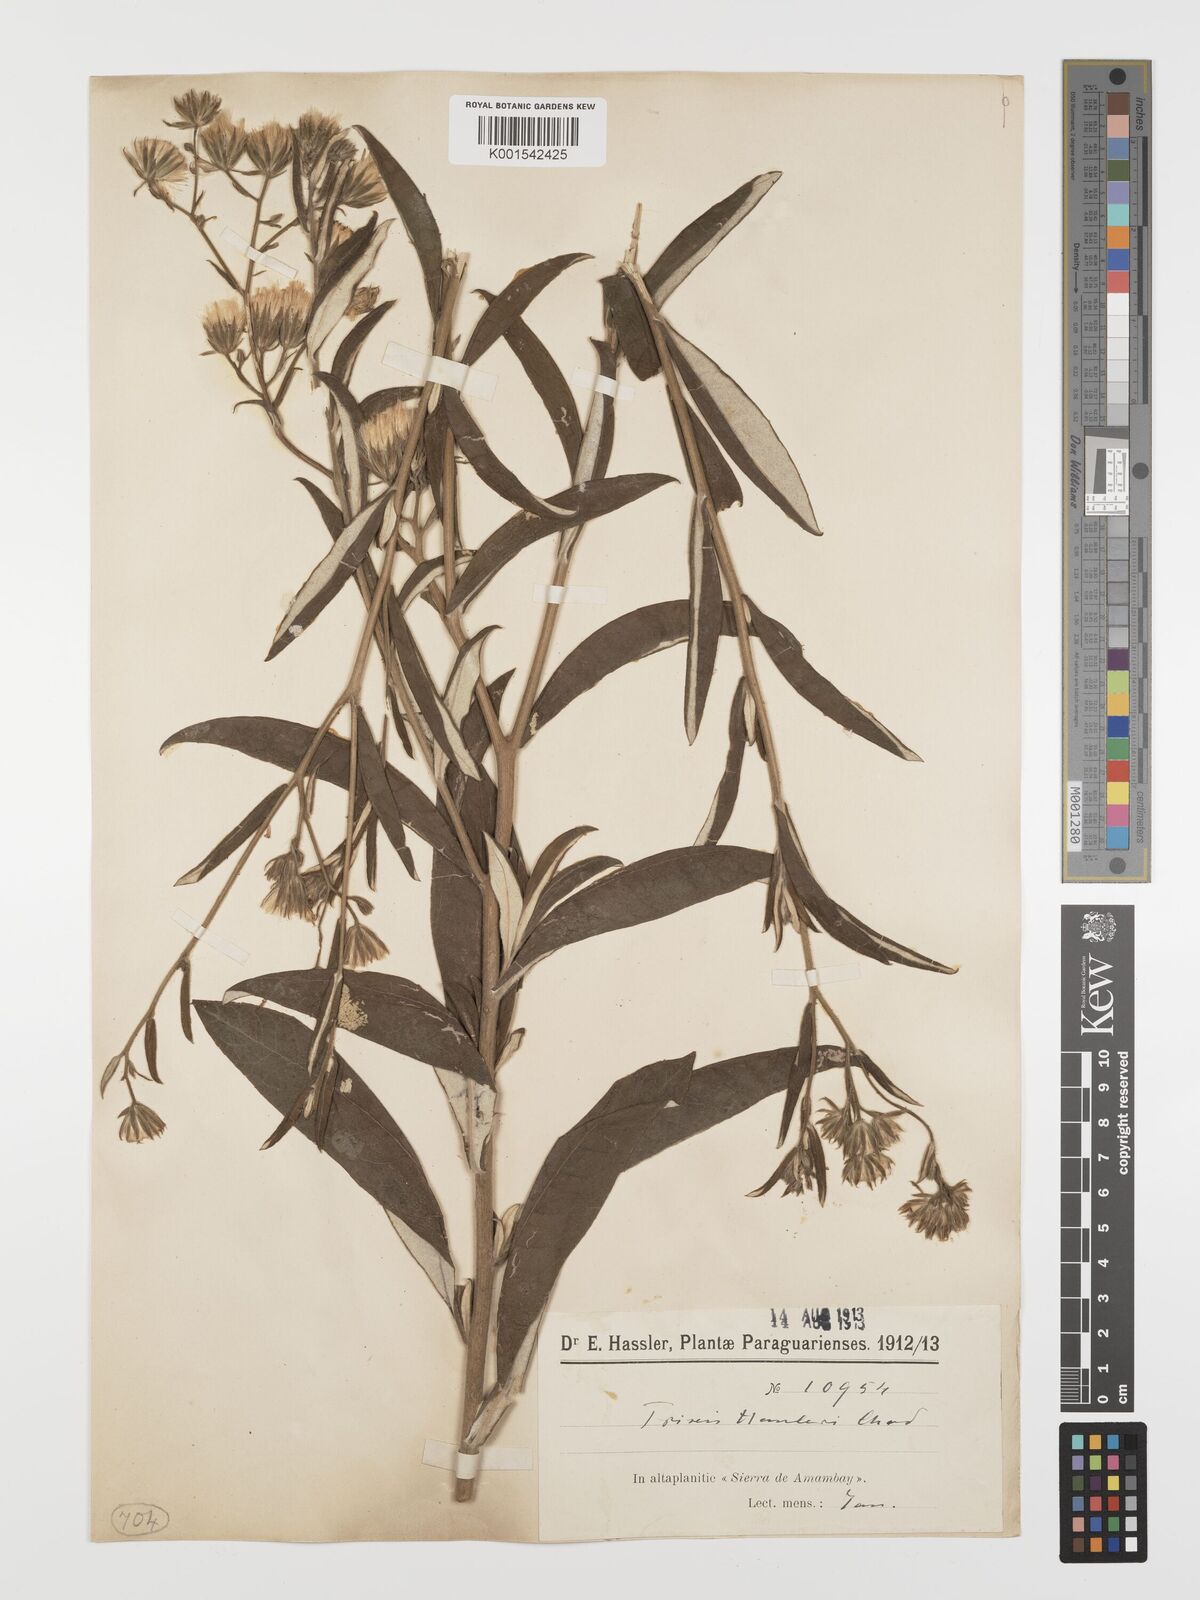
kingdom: Plantae
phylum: Tracheophyta
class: Magnoliopsida
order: Asterales
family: Asteraceae
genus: Trixis
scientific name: Trixis hassleri
